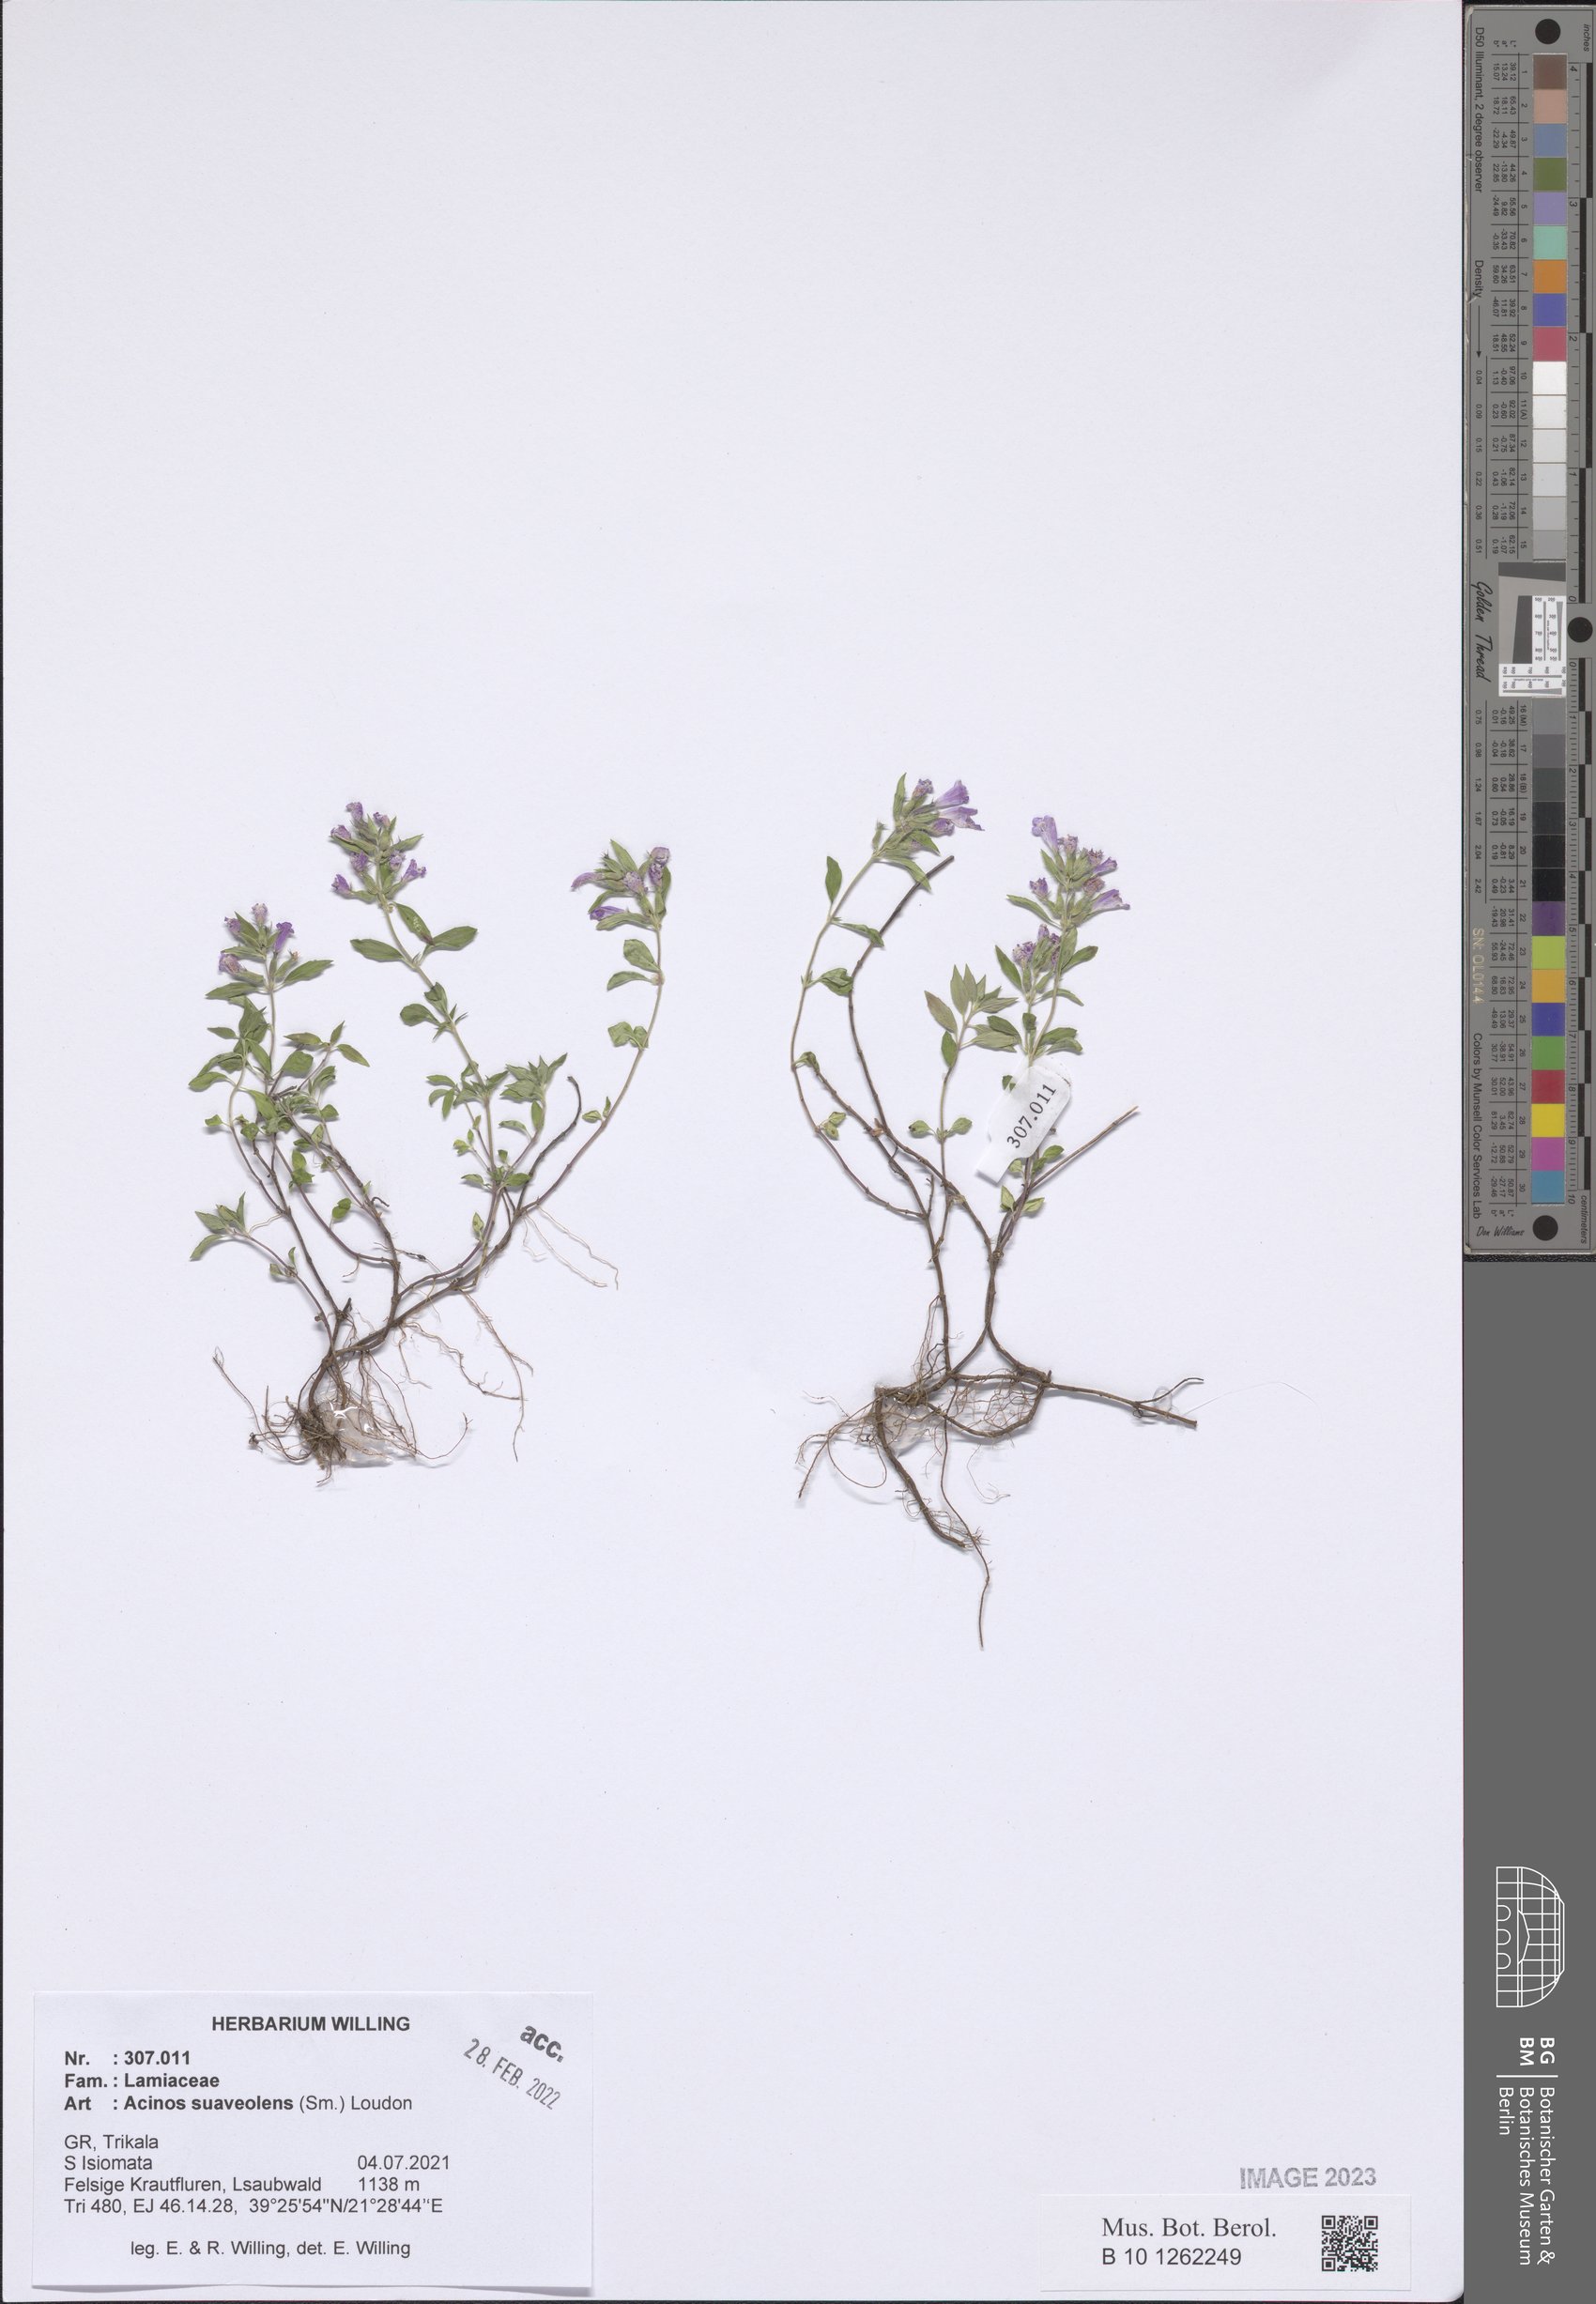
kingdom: Plantae
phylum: Tracheophyta
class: Magnoliopsida
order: Lamiales
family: Lamiaceae
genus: Clinopodium
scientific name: Clinopodium suaveolens
